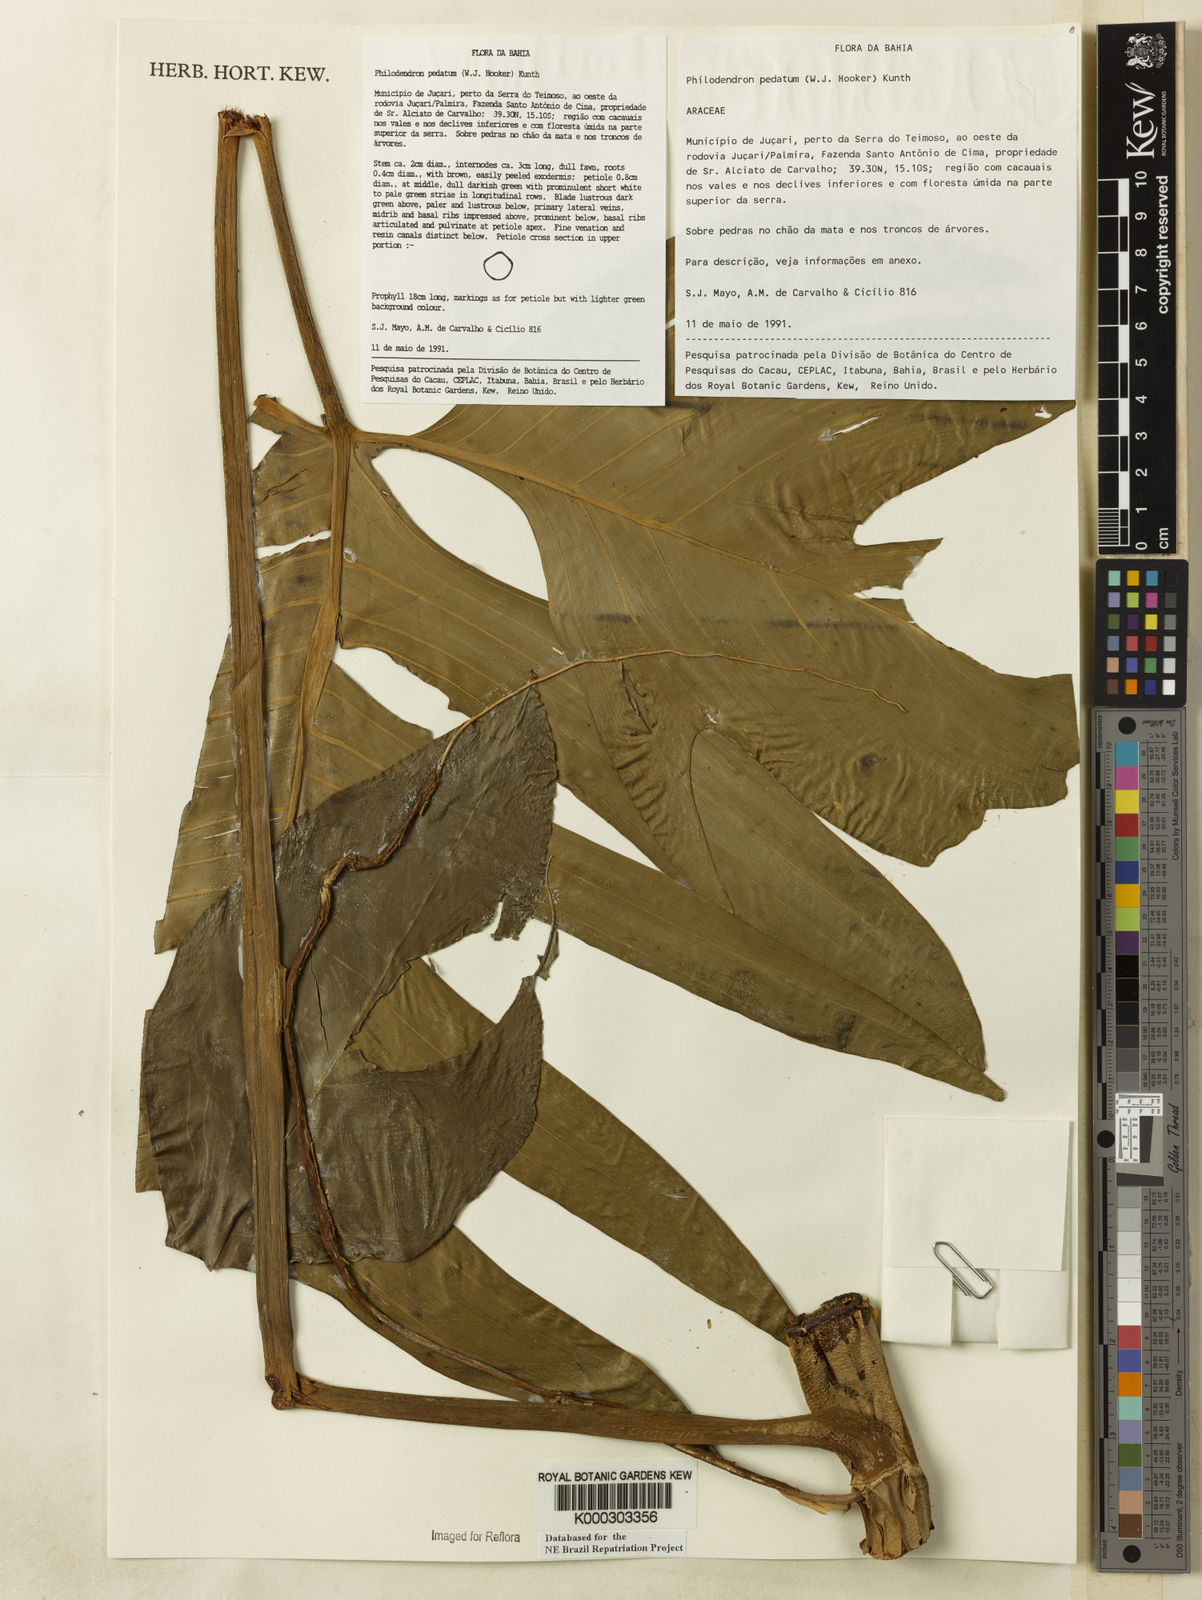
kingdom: Plantae
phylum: Tracheophyta
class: Liliopsida
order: Alismatales
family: Araceae
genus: Philodendron
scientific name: Philodendron pedatum
